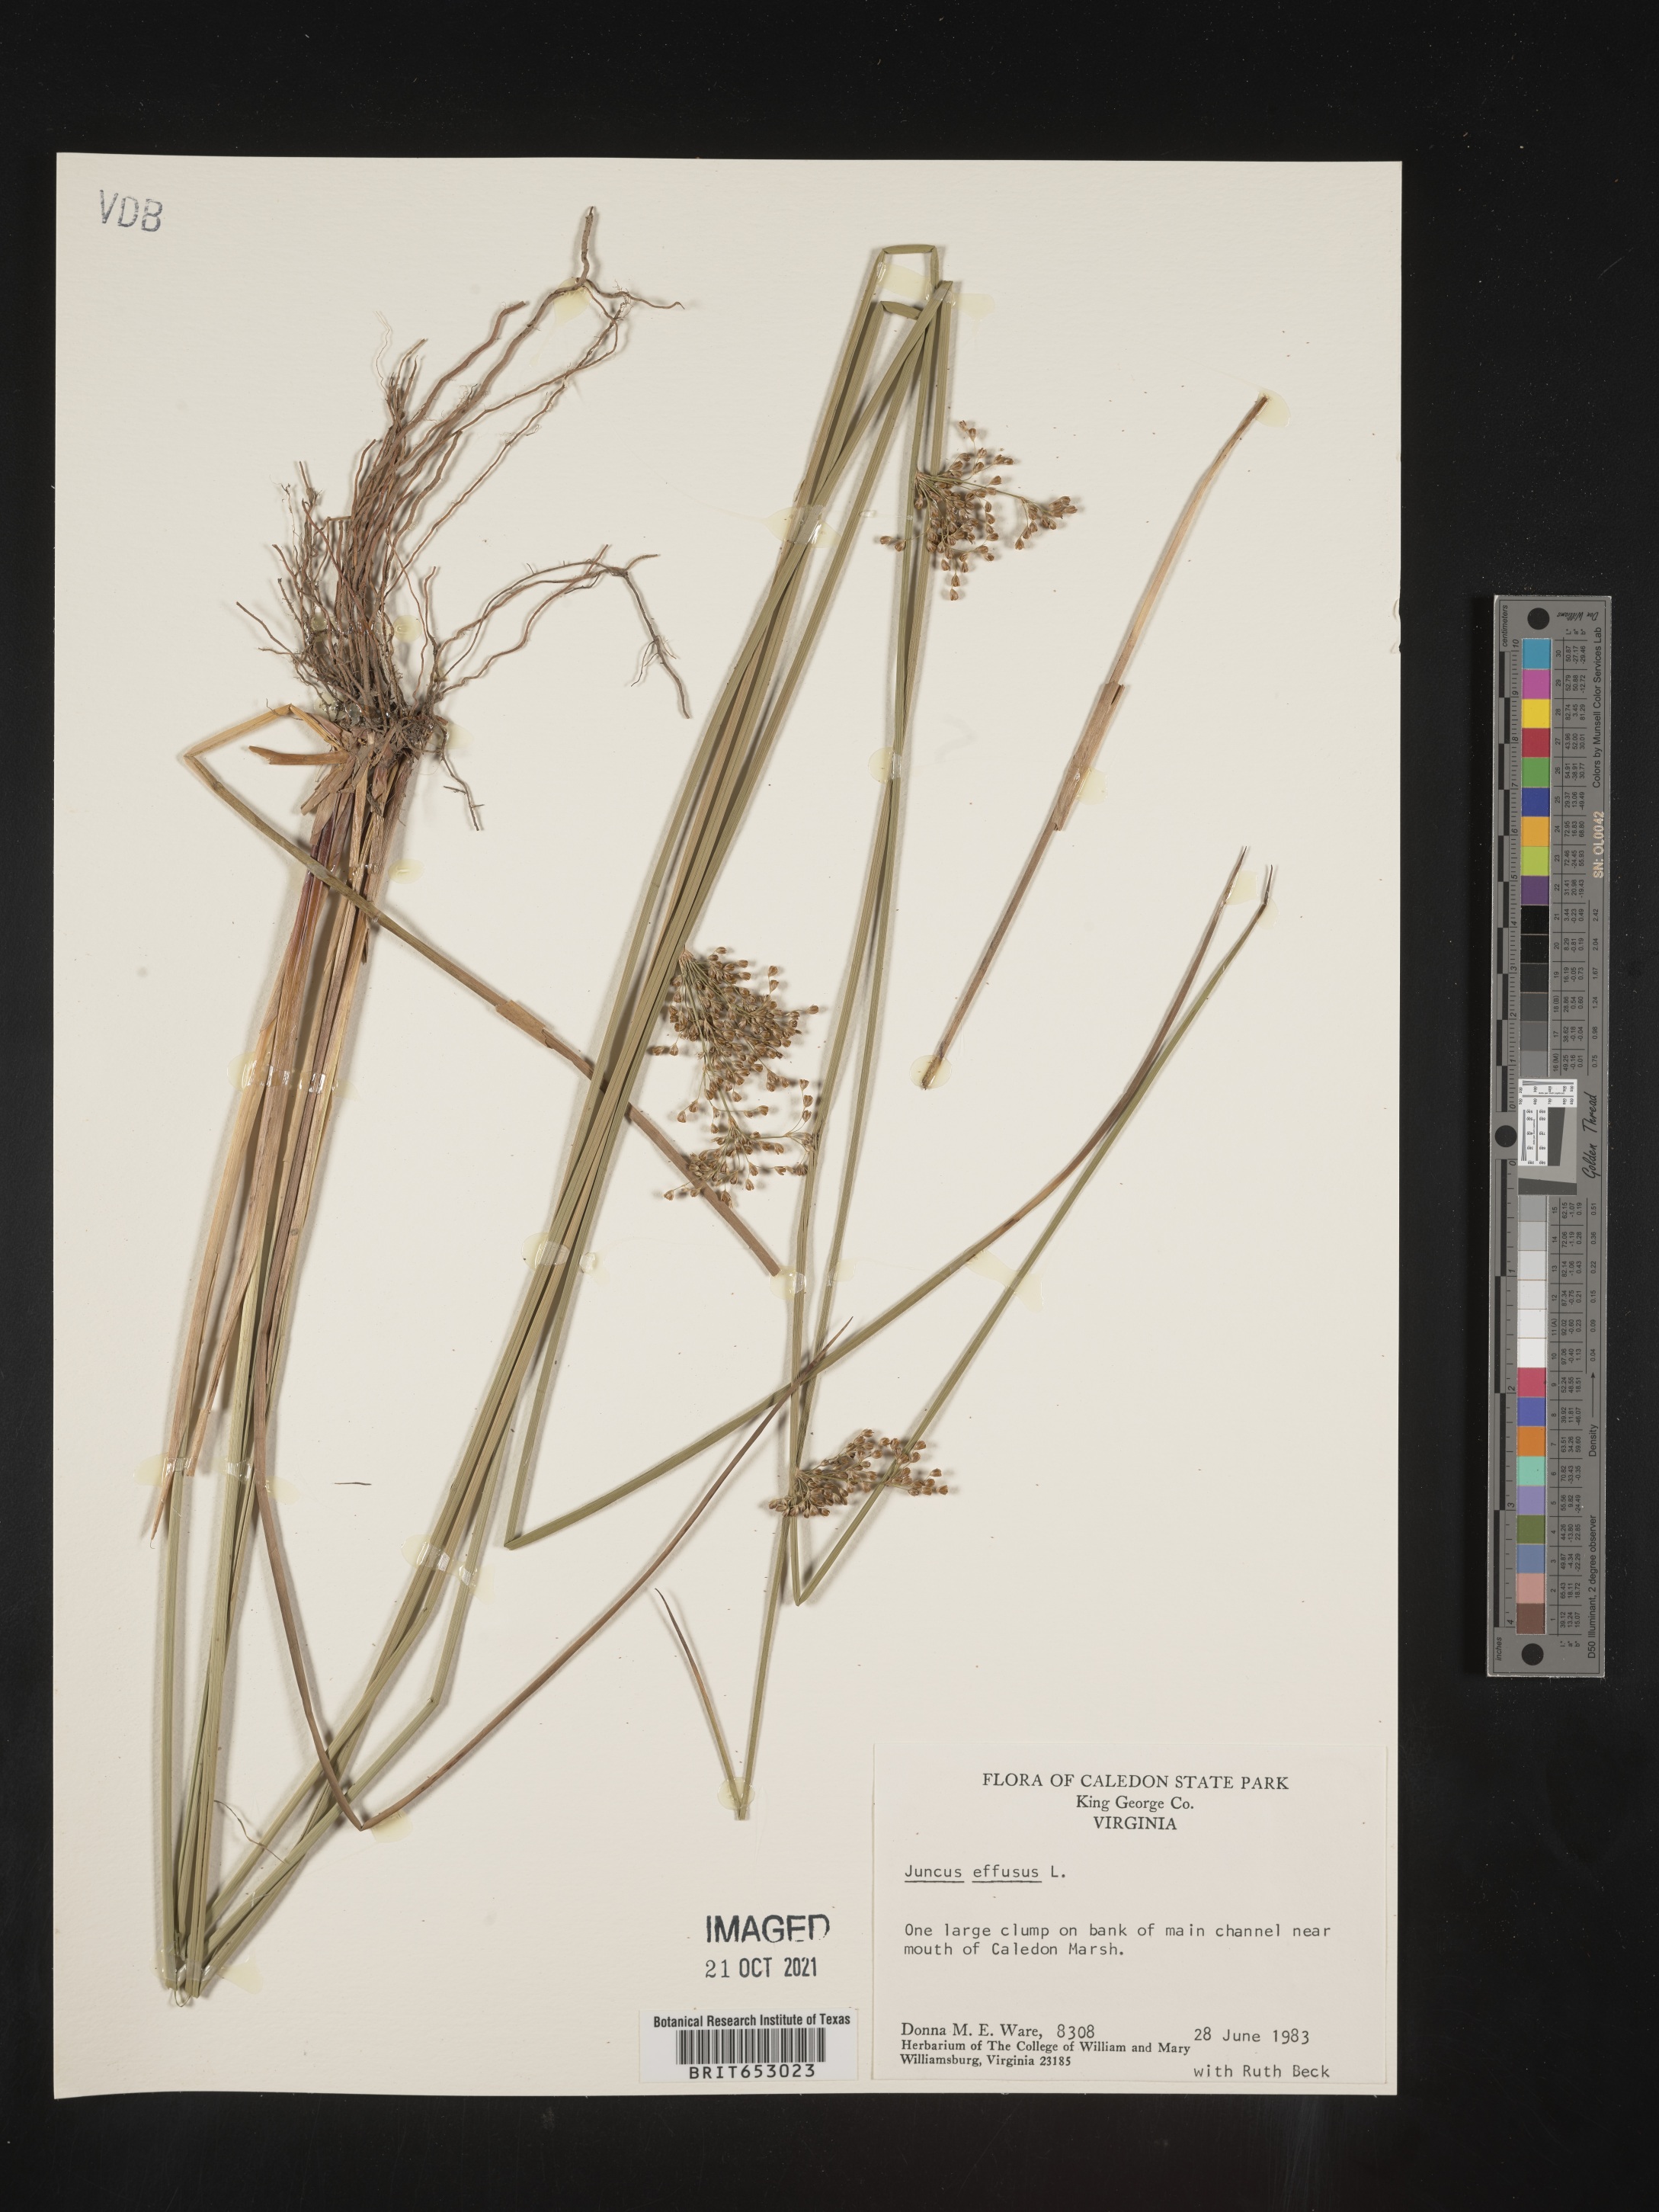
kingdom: Plantae
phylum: Tracheophyta
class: Liliopsida
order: Poales
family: Juncaceae
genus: Juncus
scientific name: Juncus effusus
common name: Soft rush
